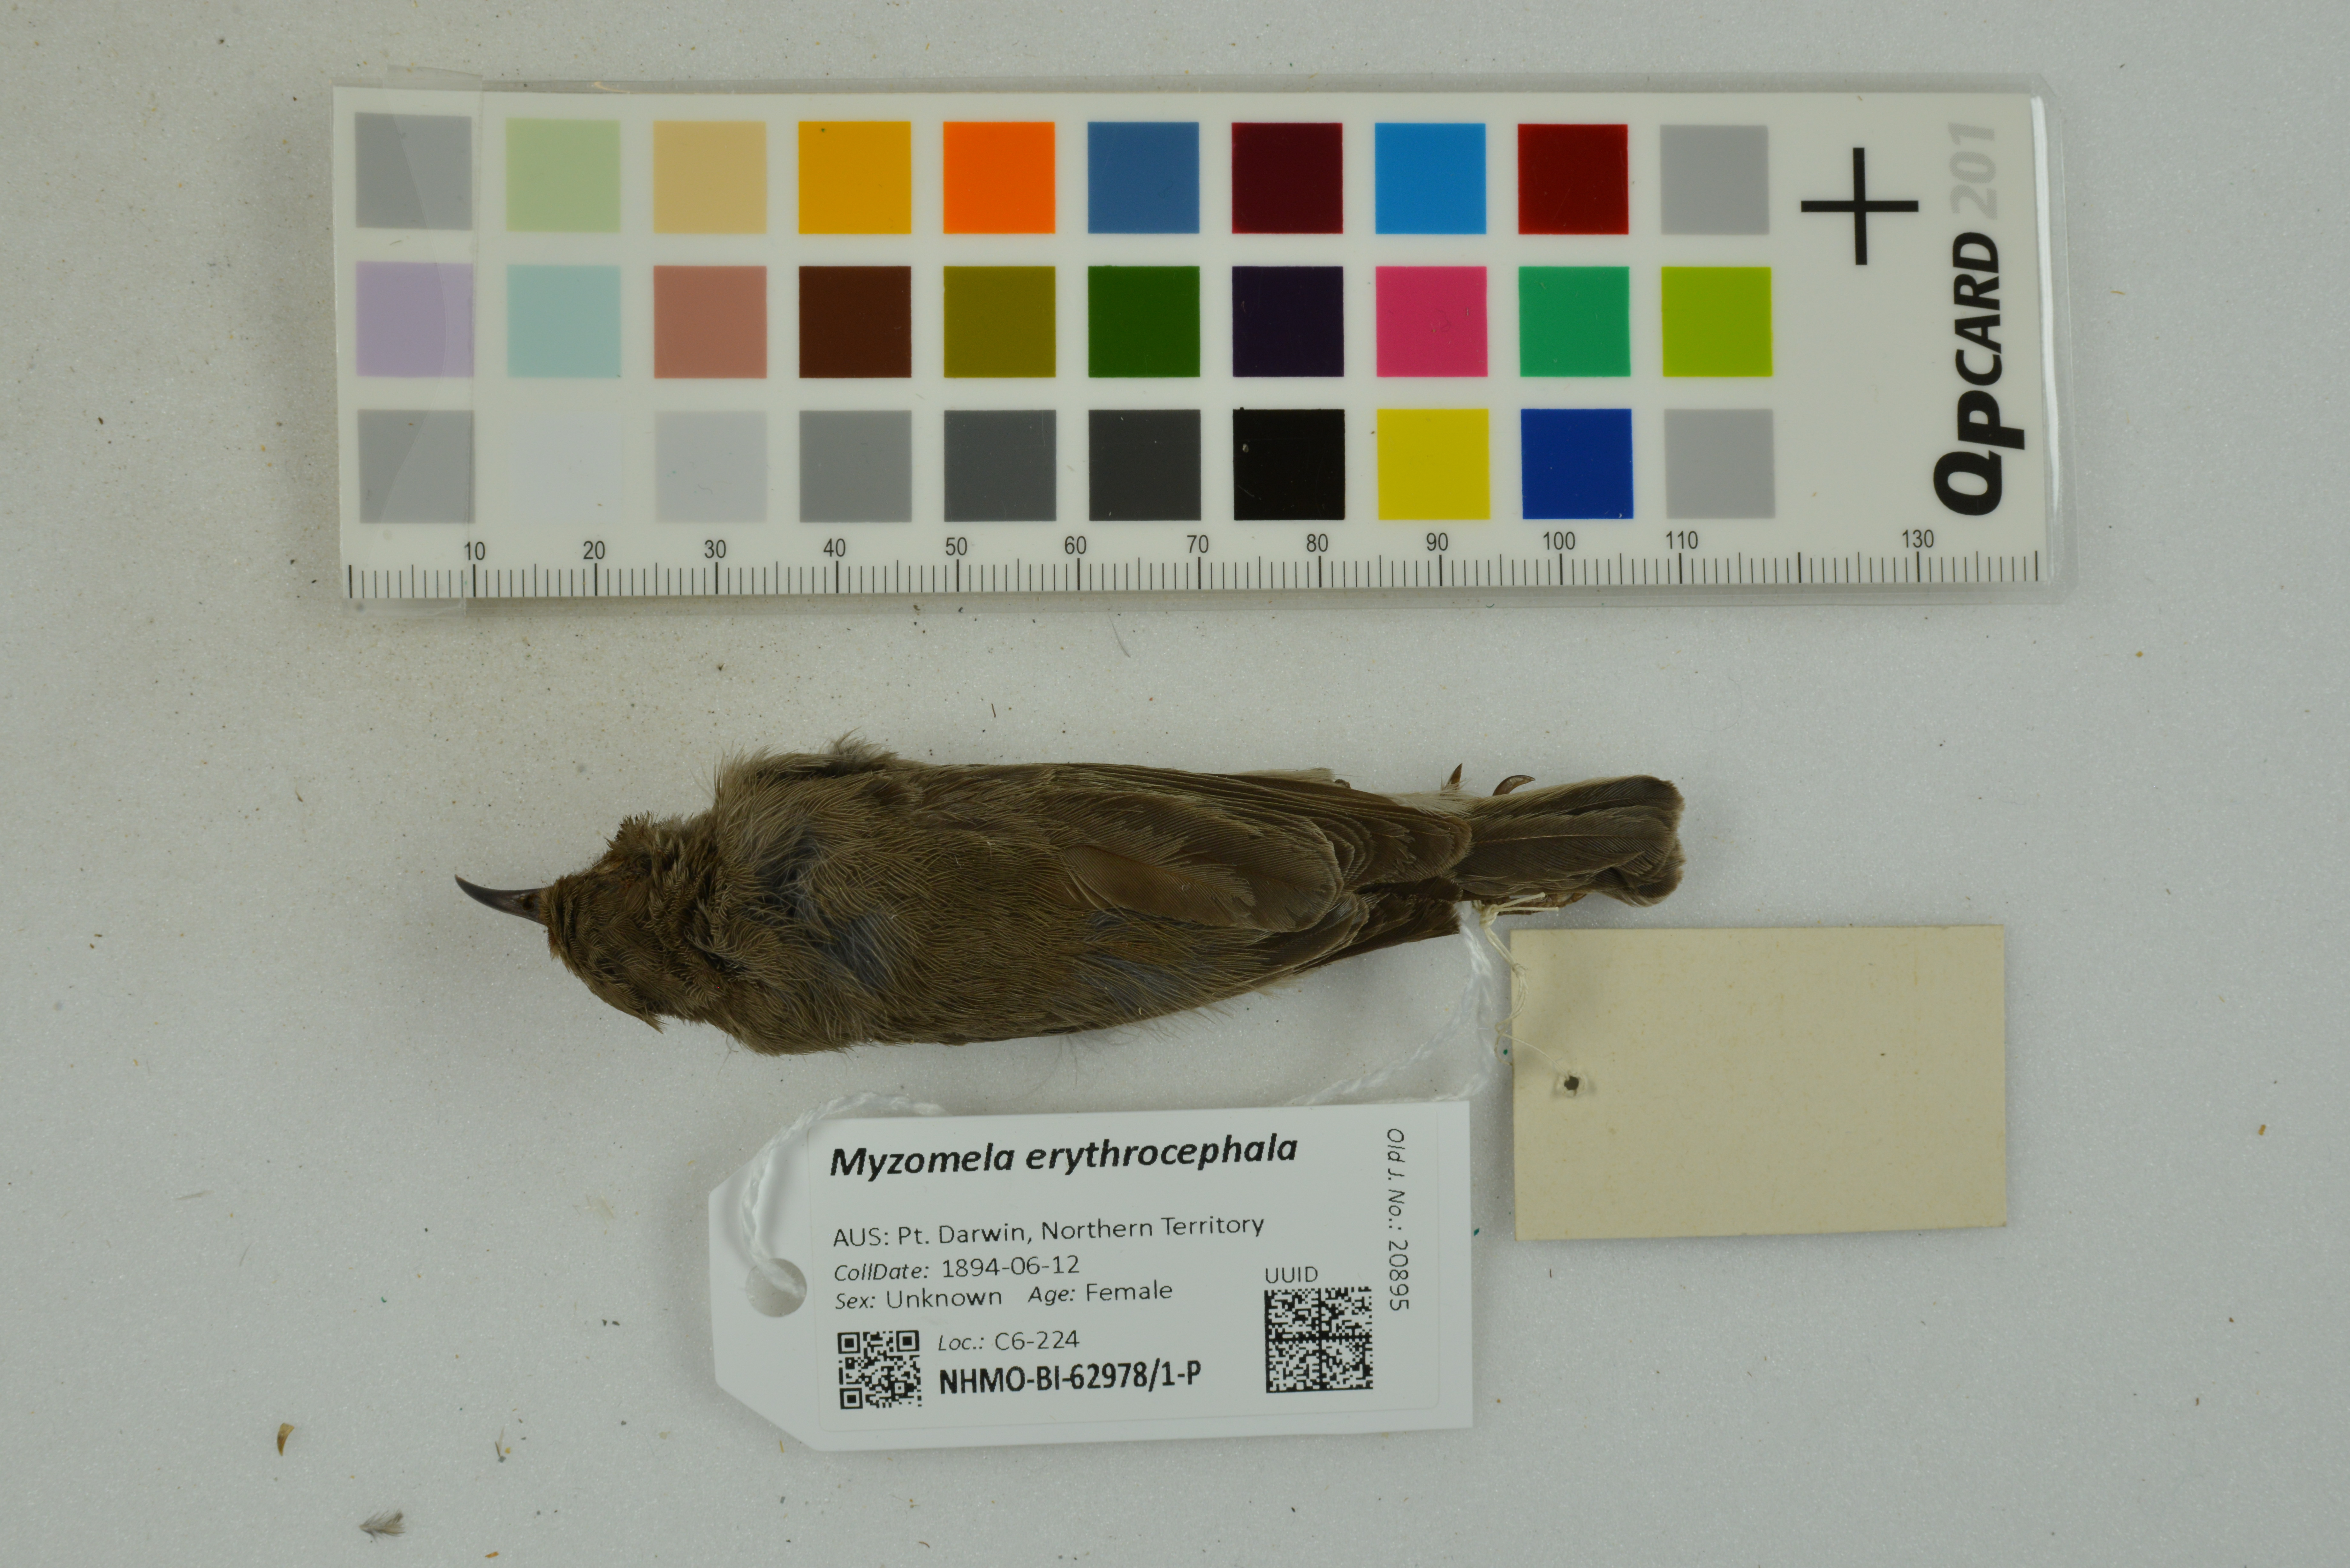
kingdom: Animalia
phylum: Chordata
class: Aves
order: Passeriformes
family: Meliphagidae
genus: Myzomela
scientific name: Myzomela erythrocephala
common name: Red-headed myzomela
